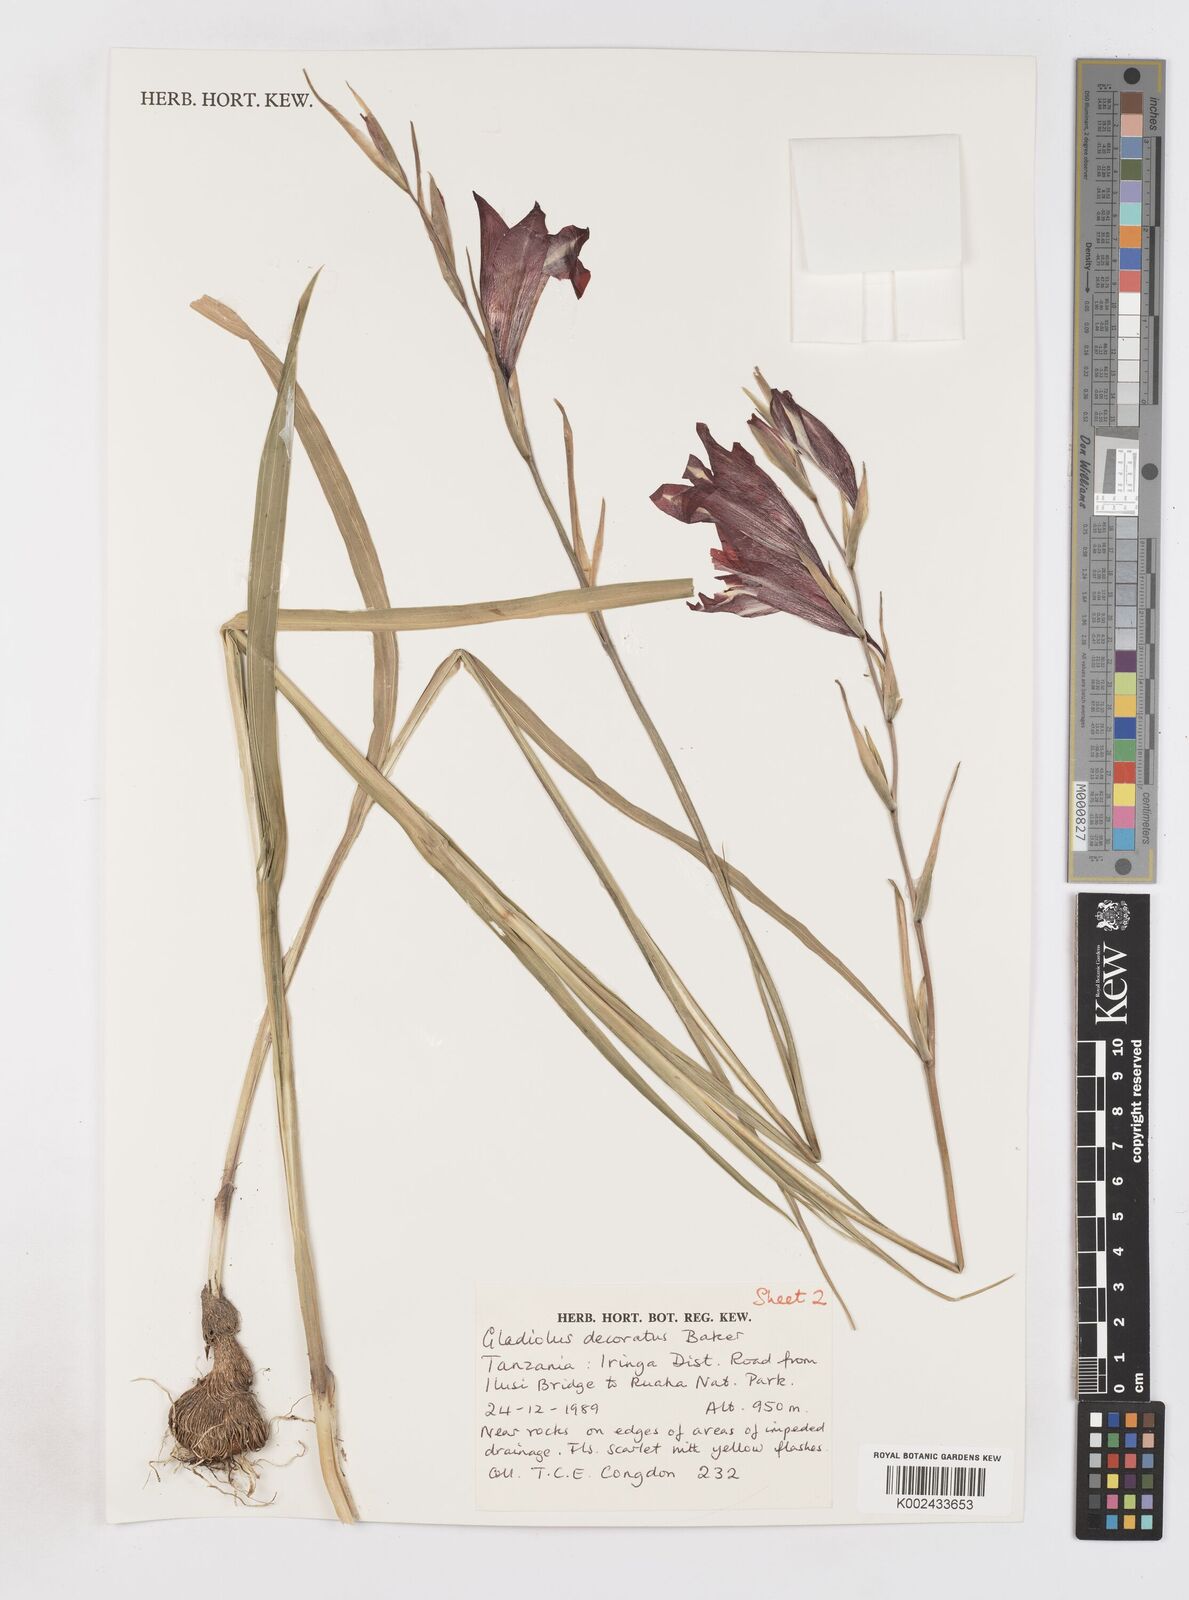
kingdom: Plantae
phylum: Tracheophyta
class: Liliopsida
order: Asparagales
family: Iridaceae
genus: Gladiolus
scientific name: Gladiolus decoratus
